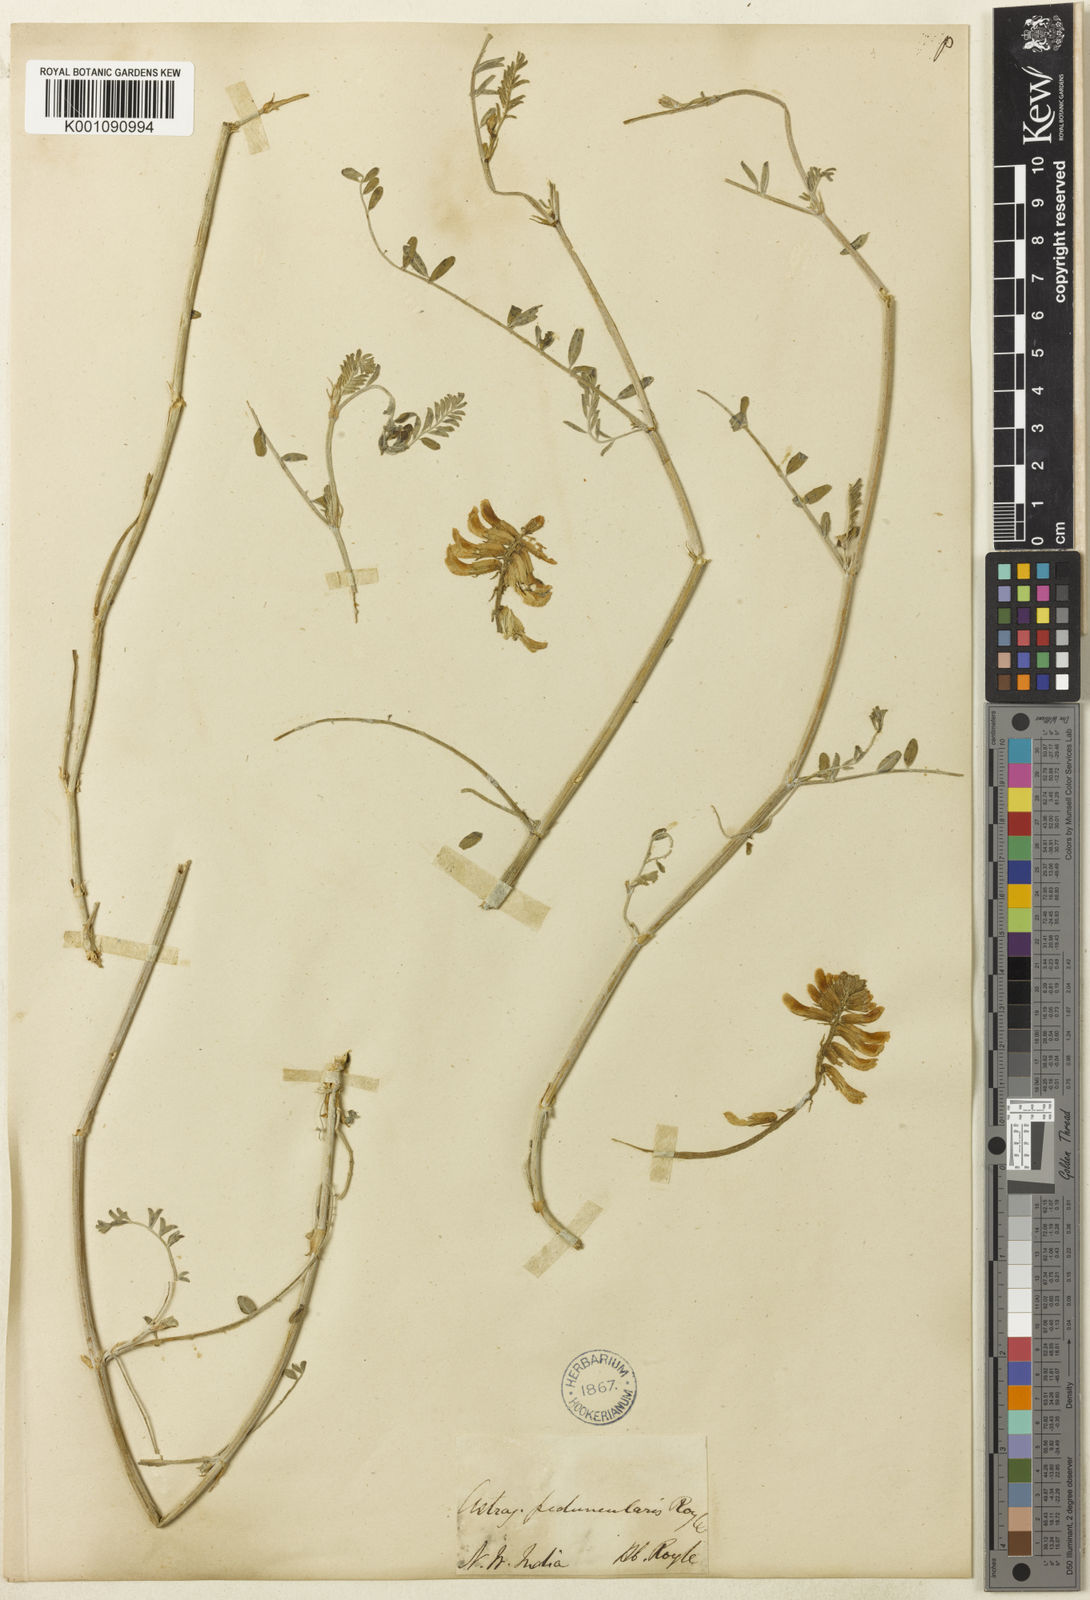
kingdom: Plantae
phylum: Tracheophyta
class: Magnoliopsida
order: Fabales
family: Fabaceae
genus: Astragalus
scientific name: Astragalus
